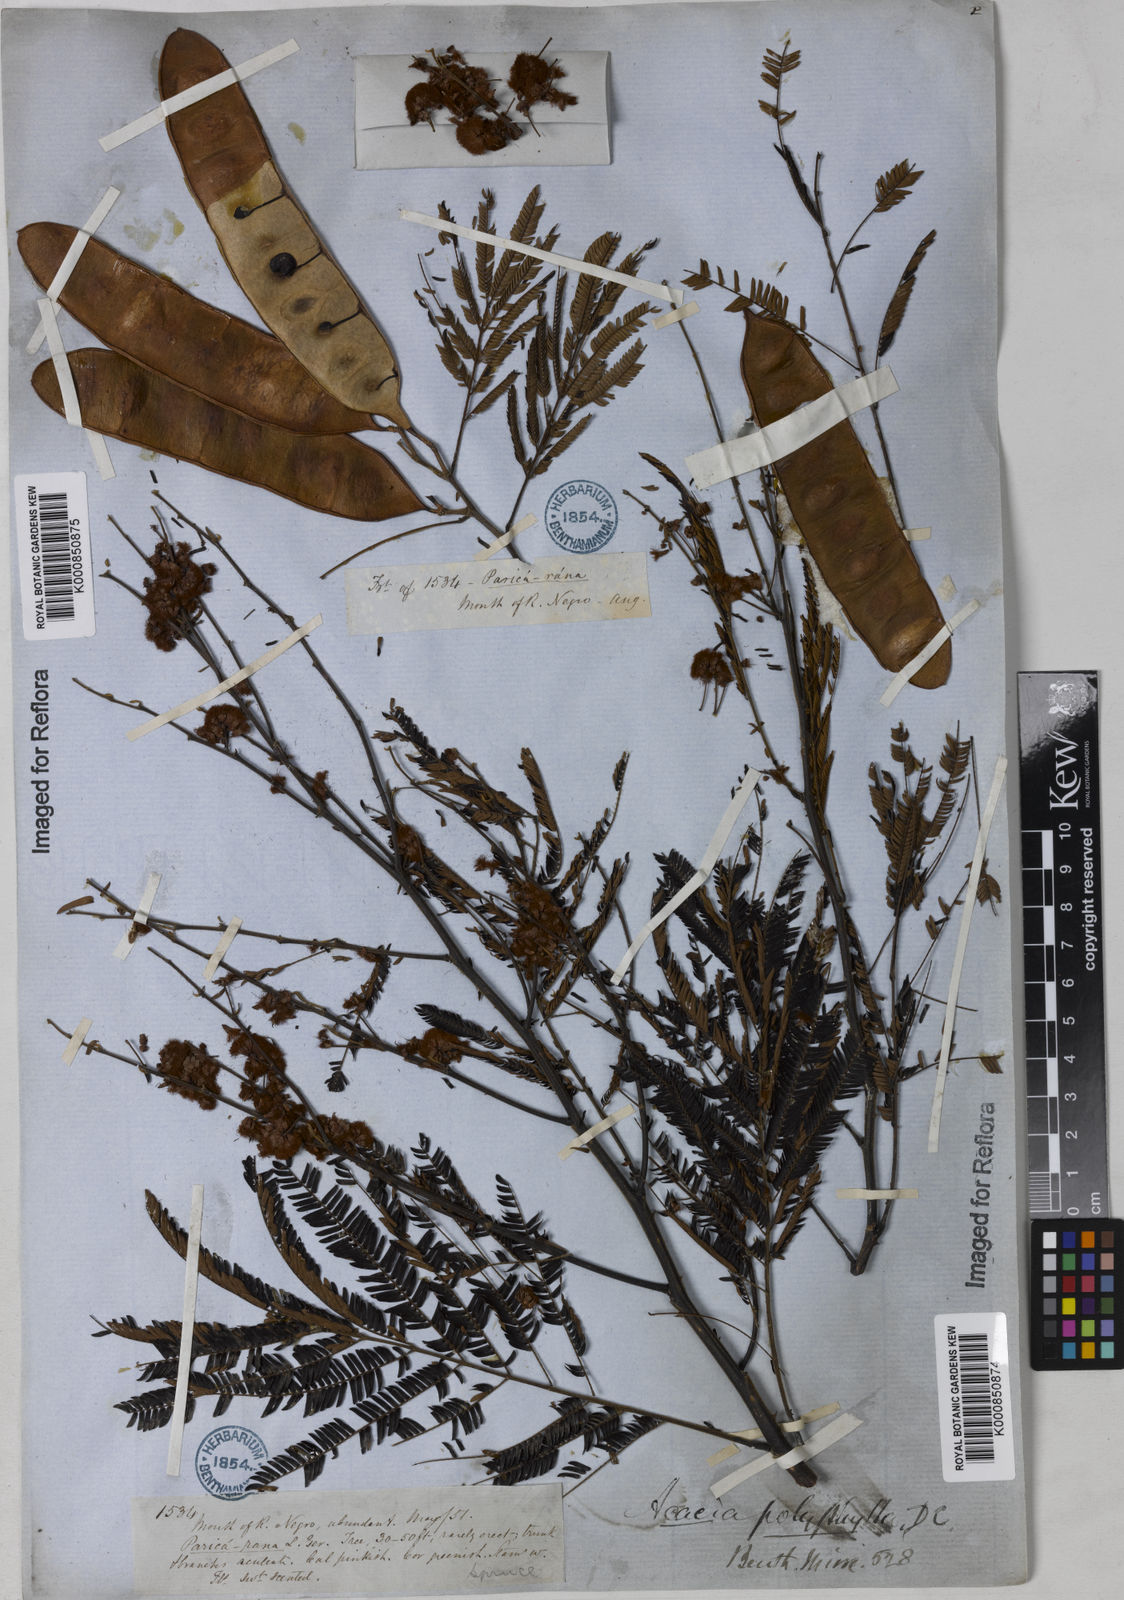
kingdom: Plantae
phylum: Tracheophyta
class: Magnoliopsida
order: Fabales
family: Fabaceae
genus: Senegalia
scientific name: Senegalia polyphylla
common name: White-tamarind
